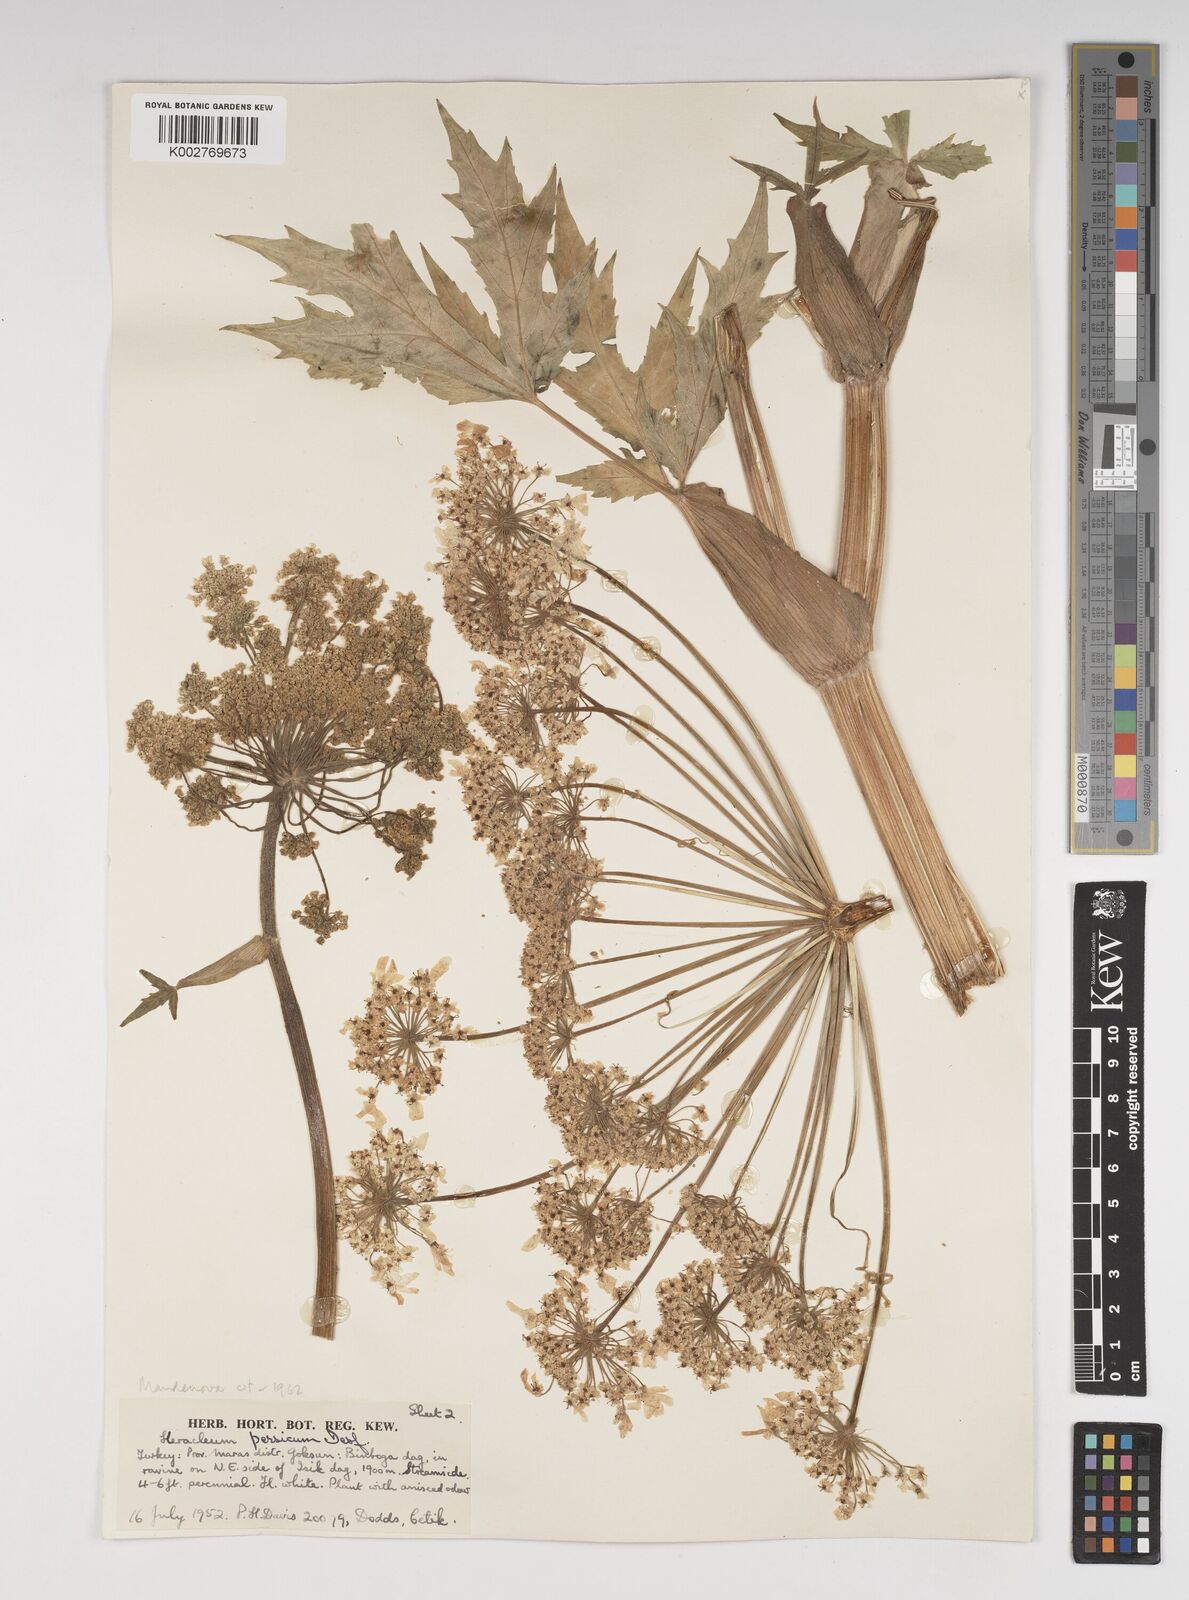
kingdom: Plantae
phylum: Tracheophyta
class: Magnoliopsida
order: Apiales
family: Apiaceae
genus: Heracleum
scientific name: Heracleum persicum
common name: Persian hogweed
